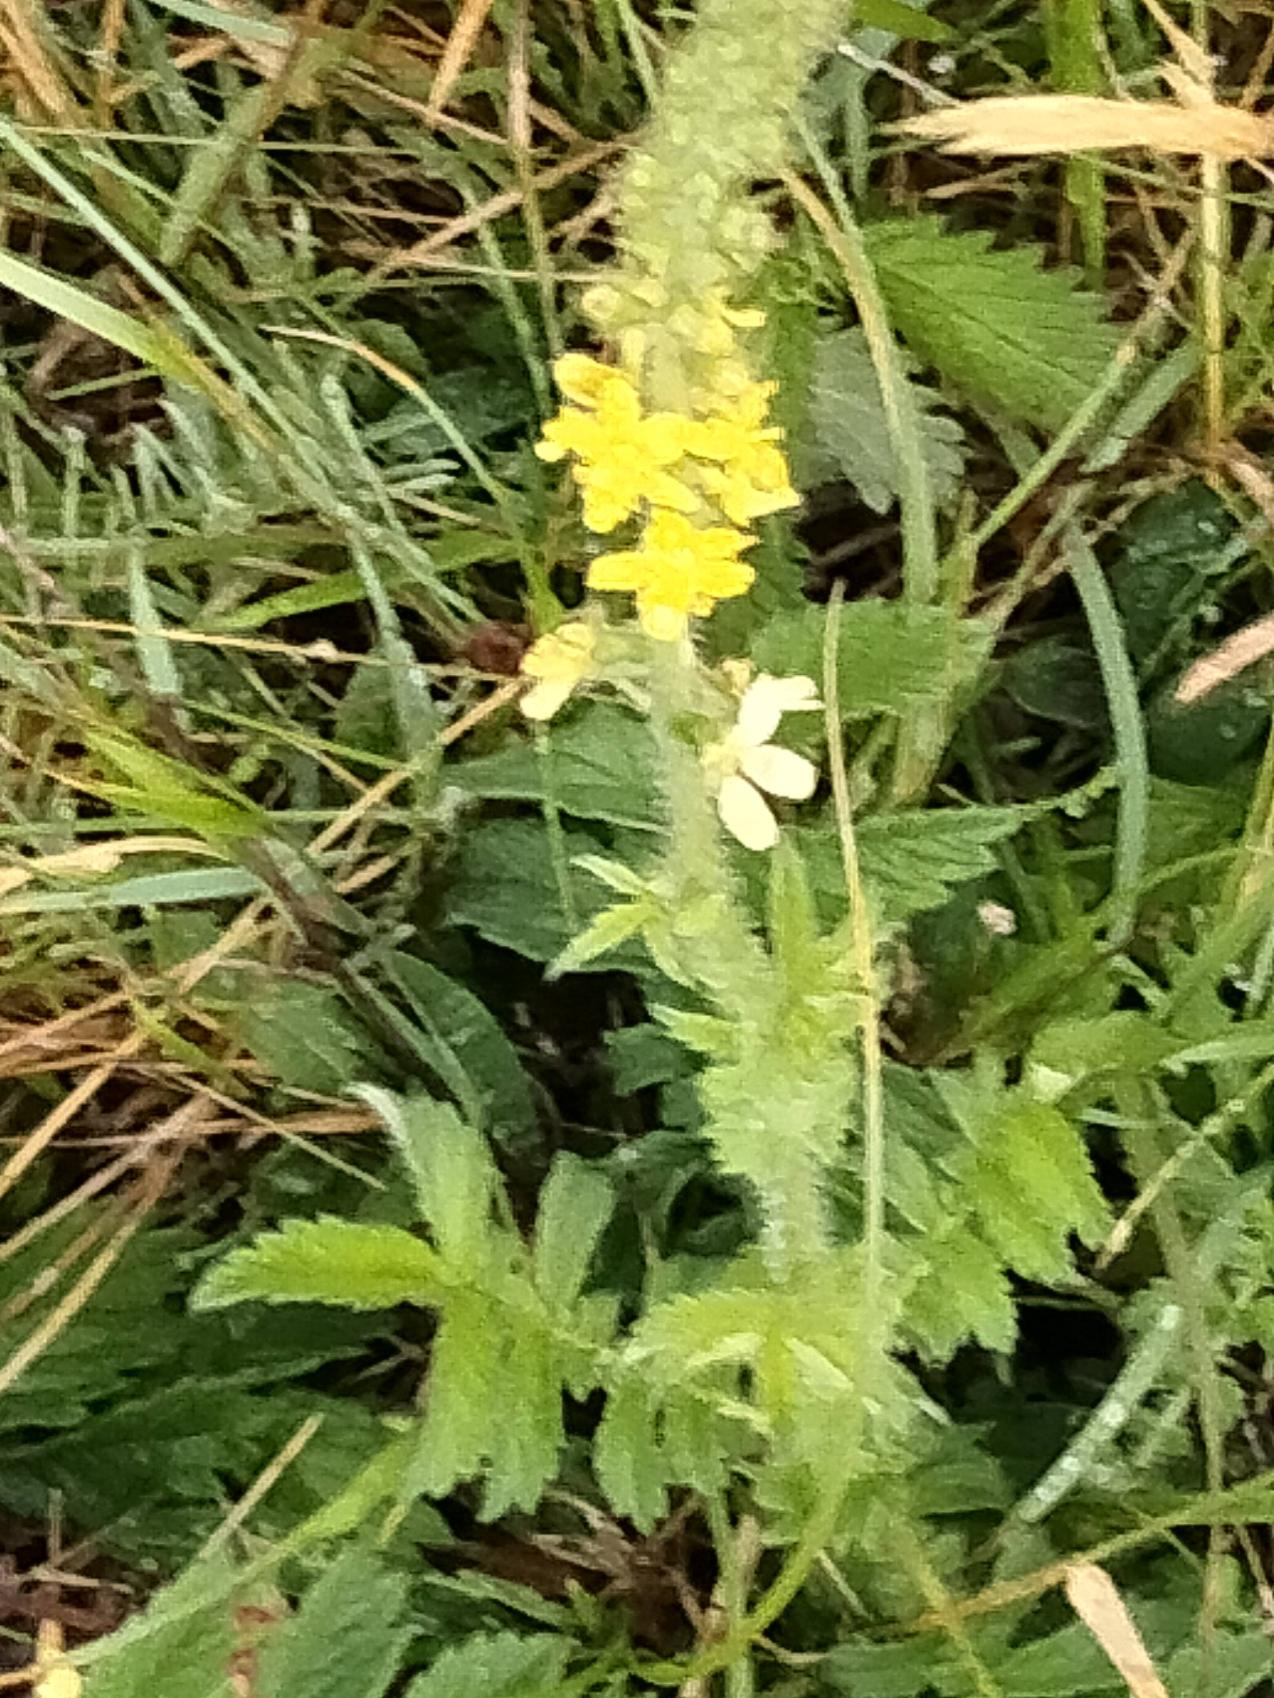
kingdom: Plantae
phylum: Tracheophyta
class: Magnoliopsida
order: Rosales
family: Rosaceae
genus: Agrimonia
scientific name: Agrimonia
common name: Agermåneslægten
